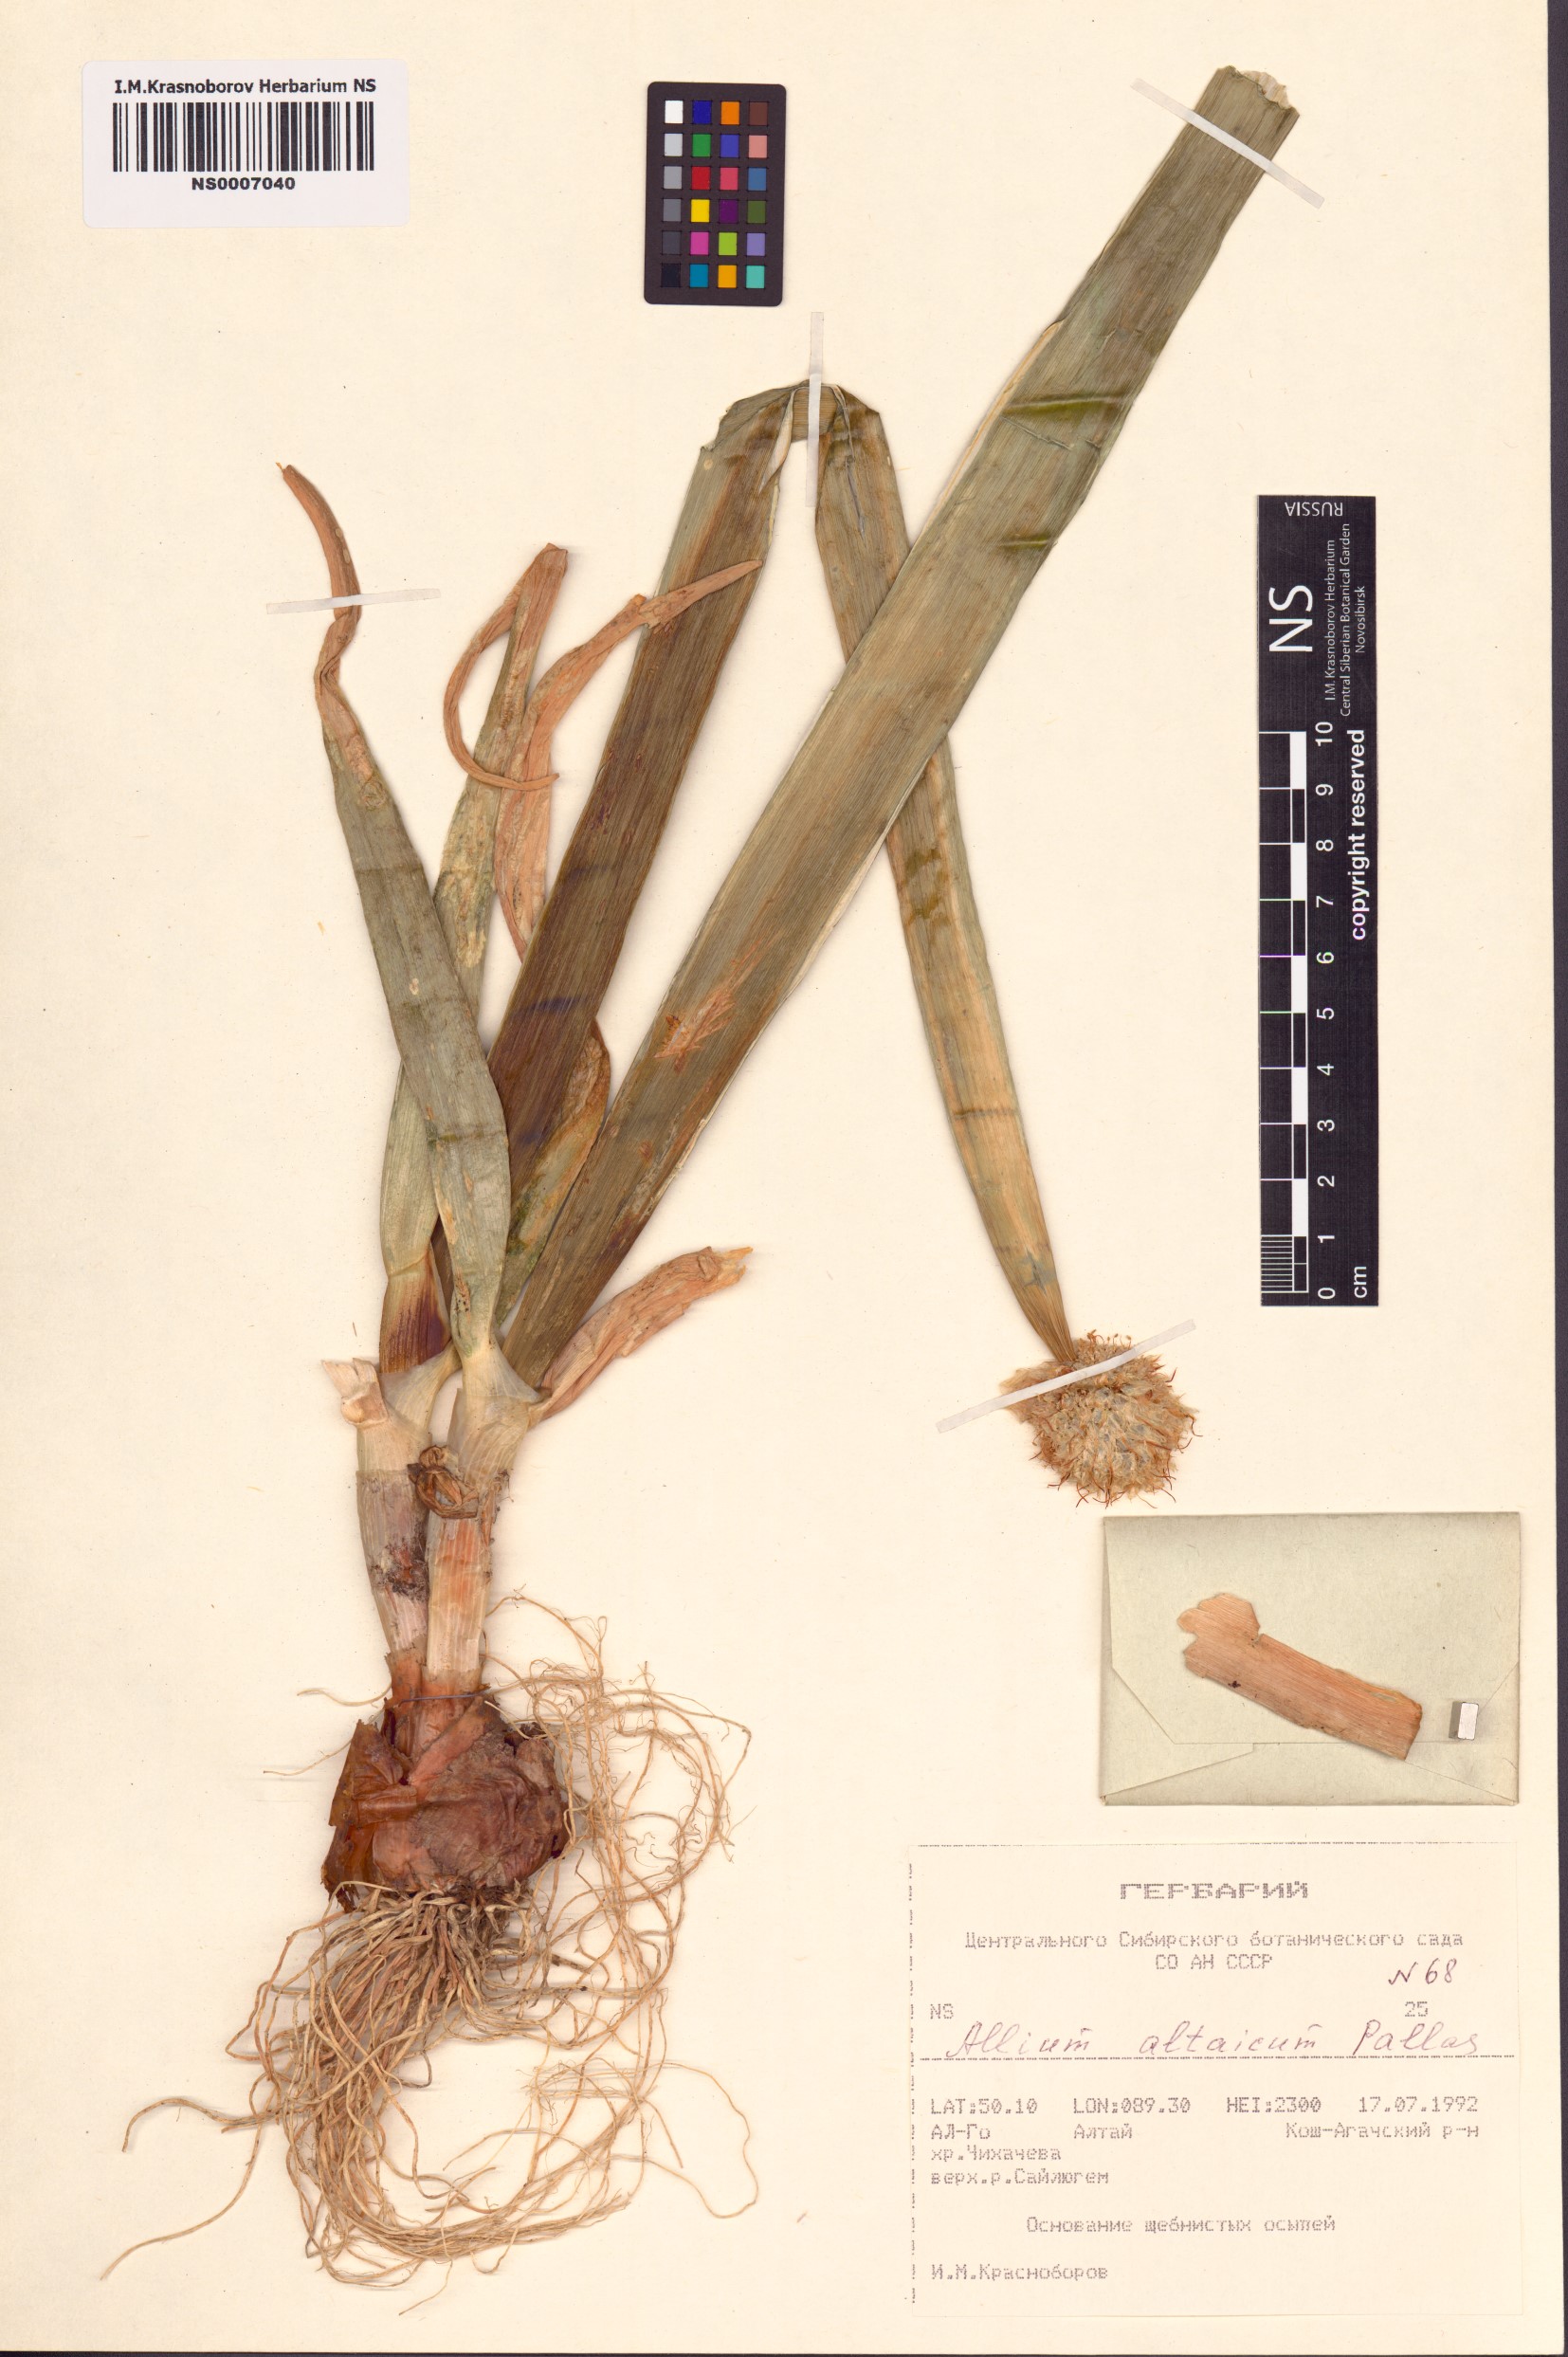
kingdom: Plantae
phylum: Tracheophyta
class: Liliopsida
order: Asparagales
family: Amaryllidaceae
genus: Allium
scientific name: Allium altaicum
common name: Altai onion
